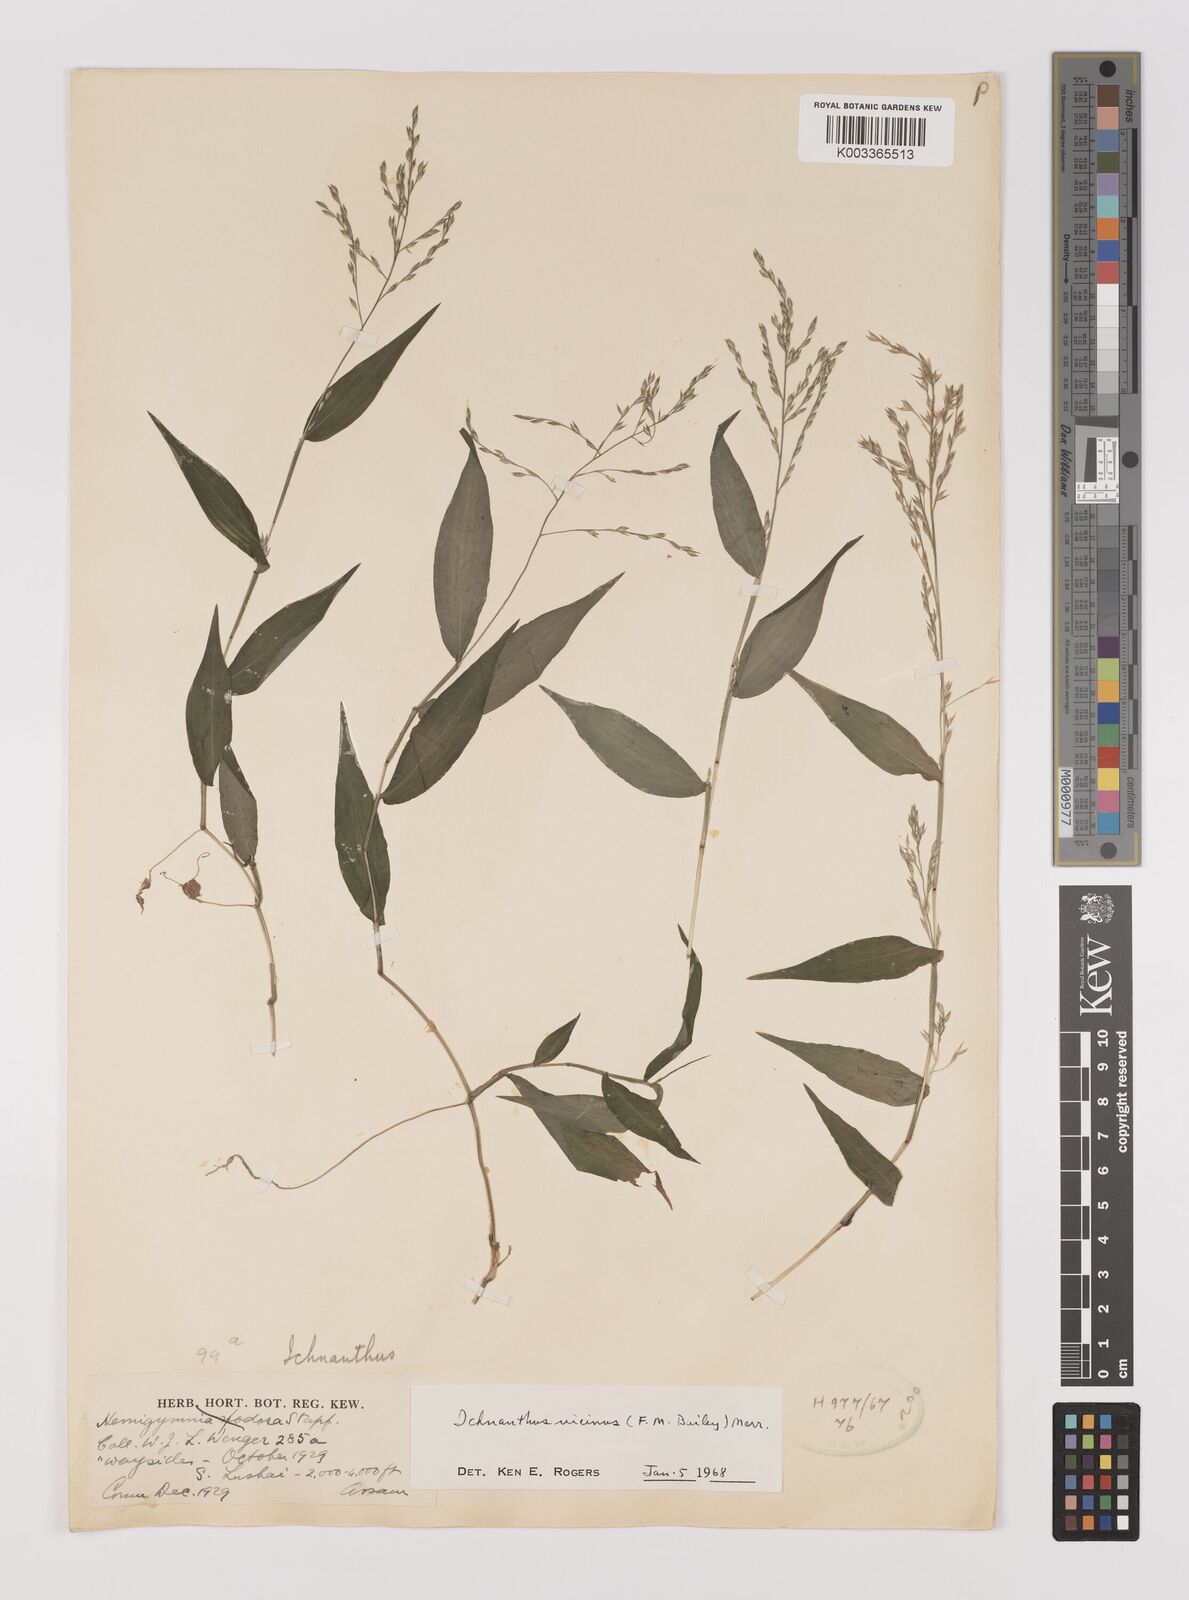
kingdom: Plantae
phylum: Tracheophyta
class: Liliopsida
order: Poales
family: Poaceae
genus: Ichnanthus
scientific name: Ichnanthus pallens
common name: Water grass
